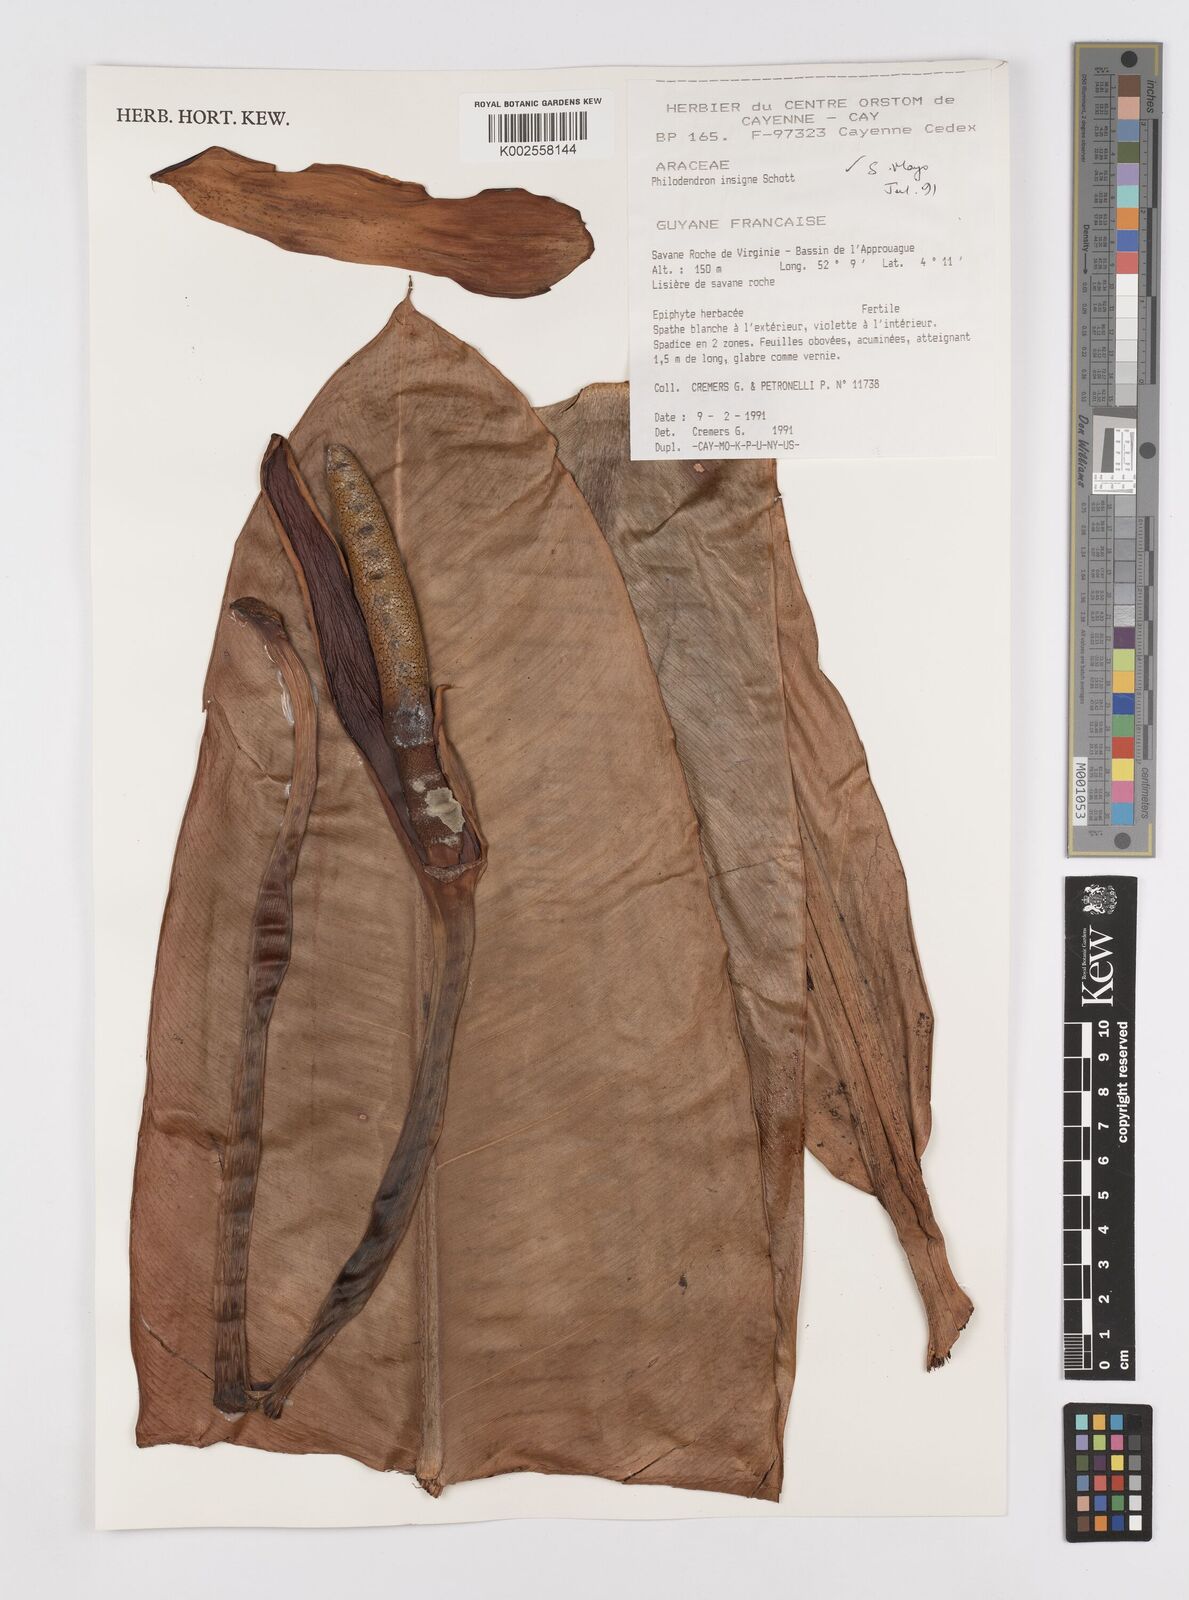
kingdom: Plantae
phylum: Tracheophyta
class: Liliopsida
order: Alismatales
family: Araceae
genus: Philodendron
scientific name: Philodendron insigne
